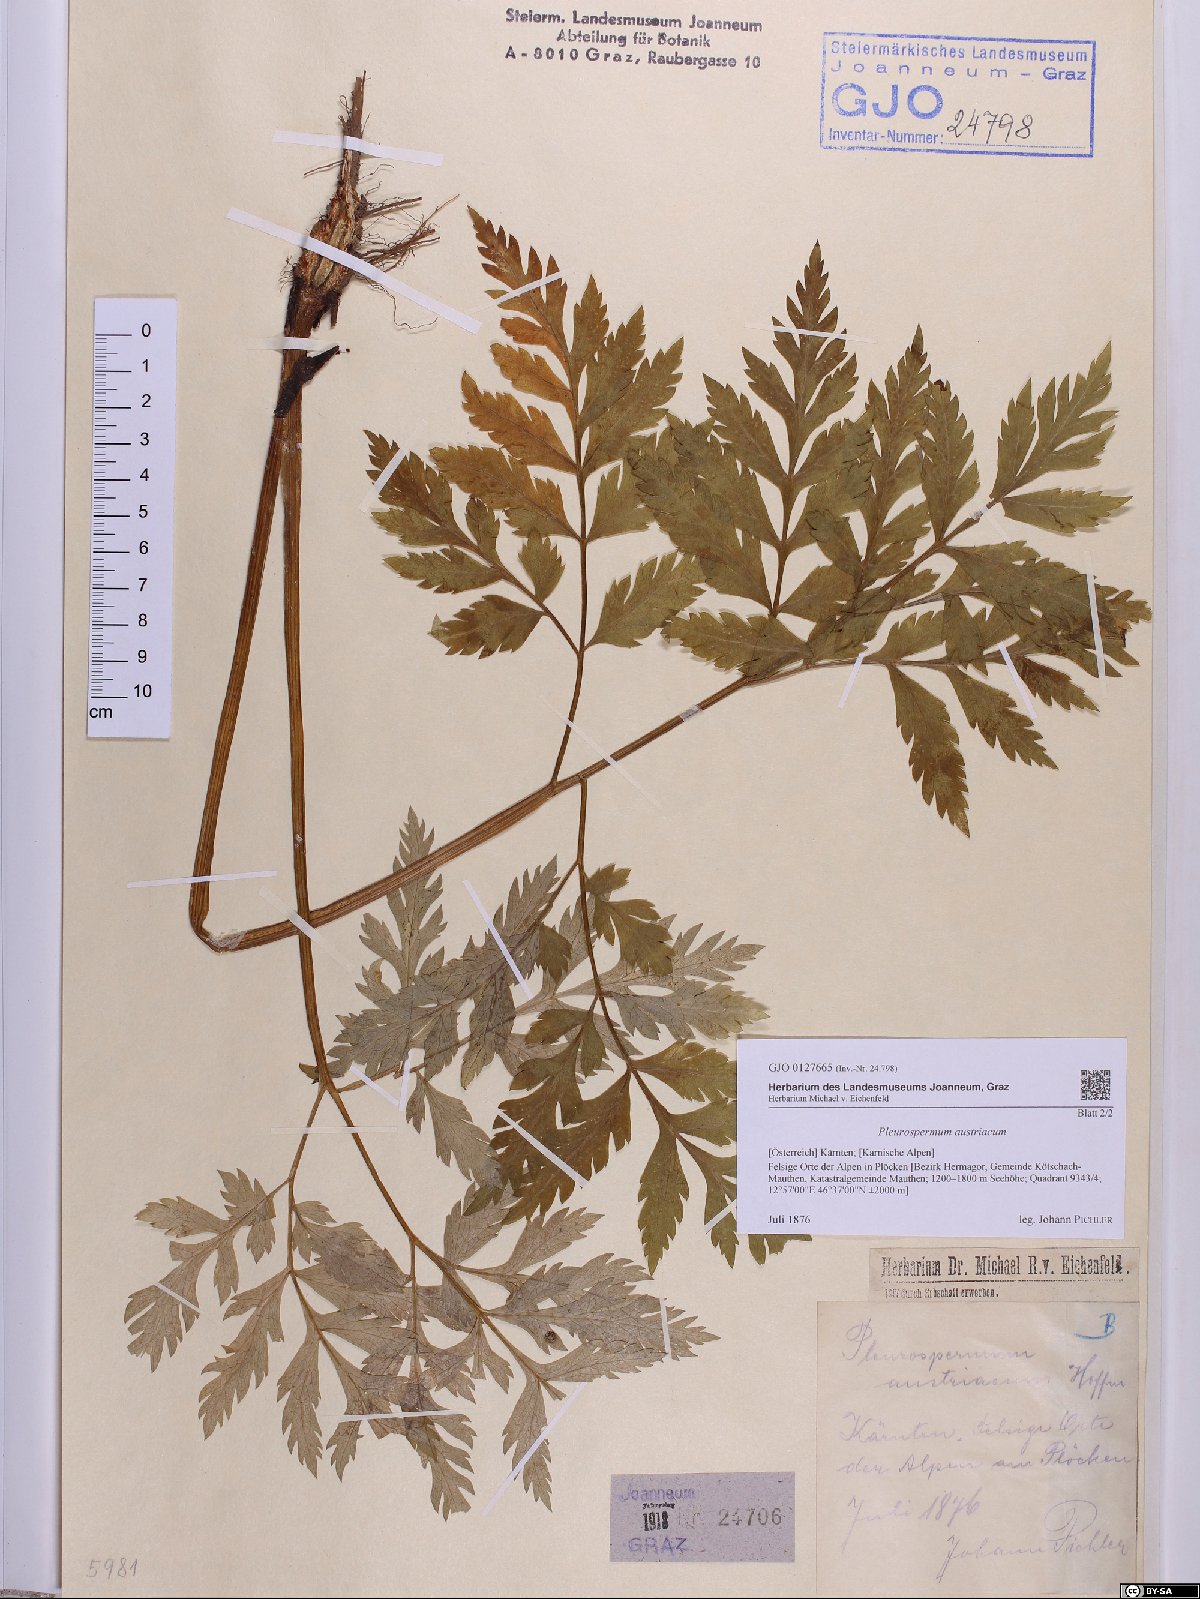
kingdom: Plantae
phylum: Tracheophyta
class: Magnoliopsida
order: Apiales
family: Apiaceae
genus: Pleurospermum
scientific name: Pleurospermum austriacum
